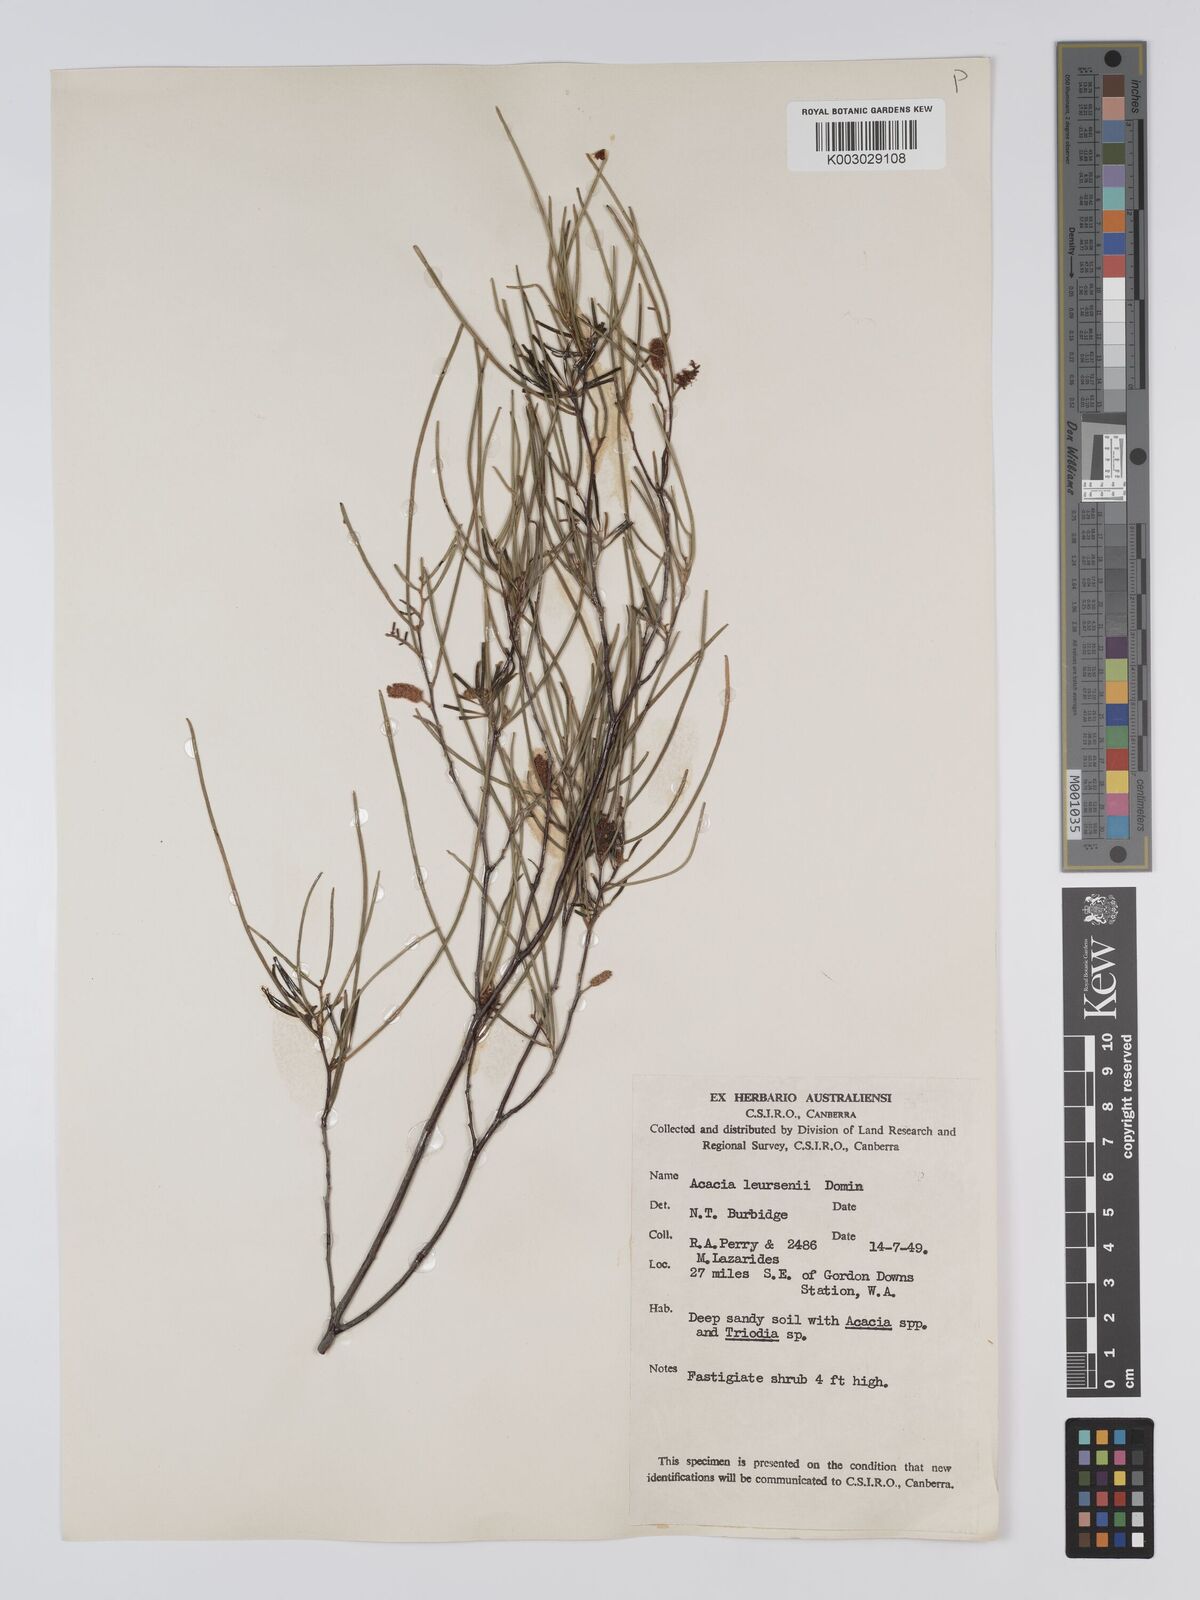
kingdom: Plantae
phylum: Tracheophyta
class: Magnoliopsida
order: Fabales
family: Fabaceae
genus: Acacia
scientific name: Acacia tenuissima
